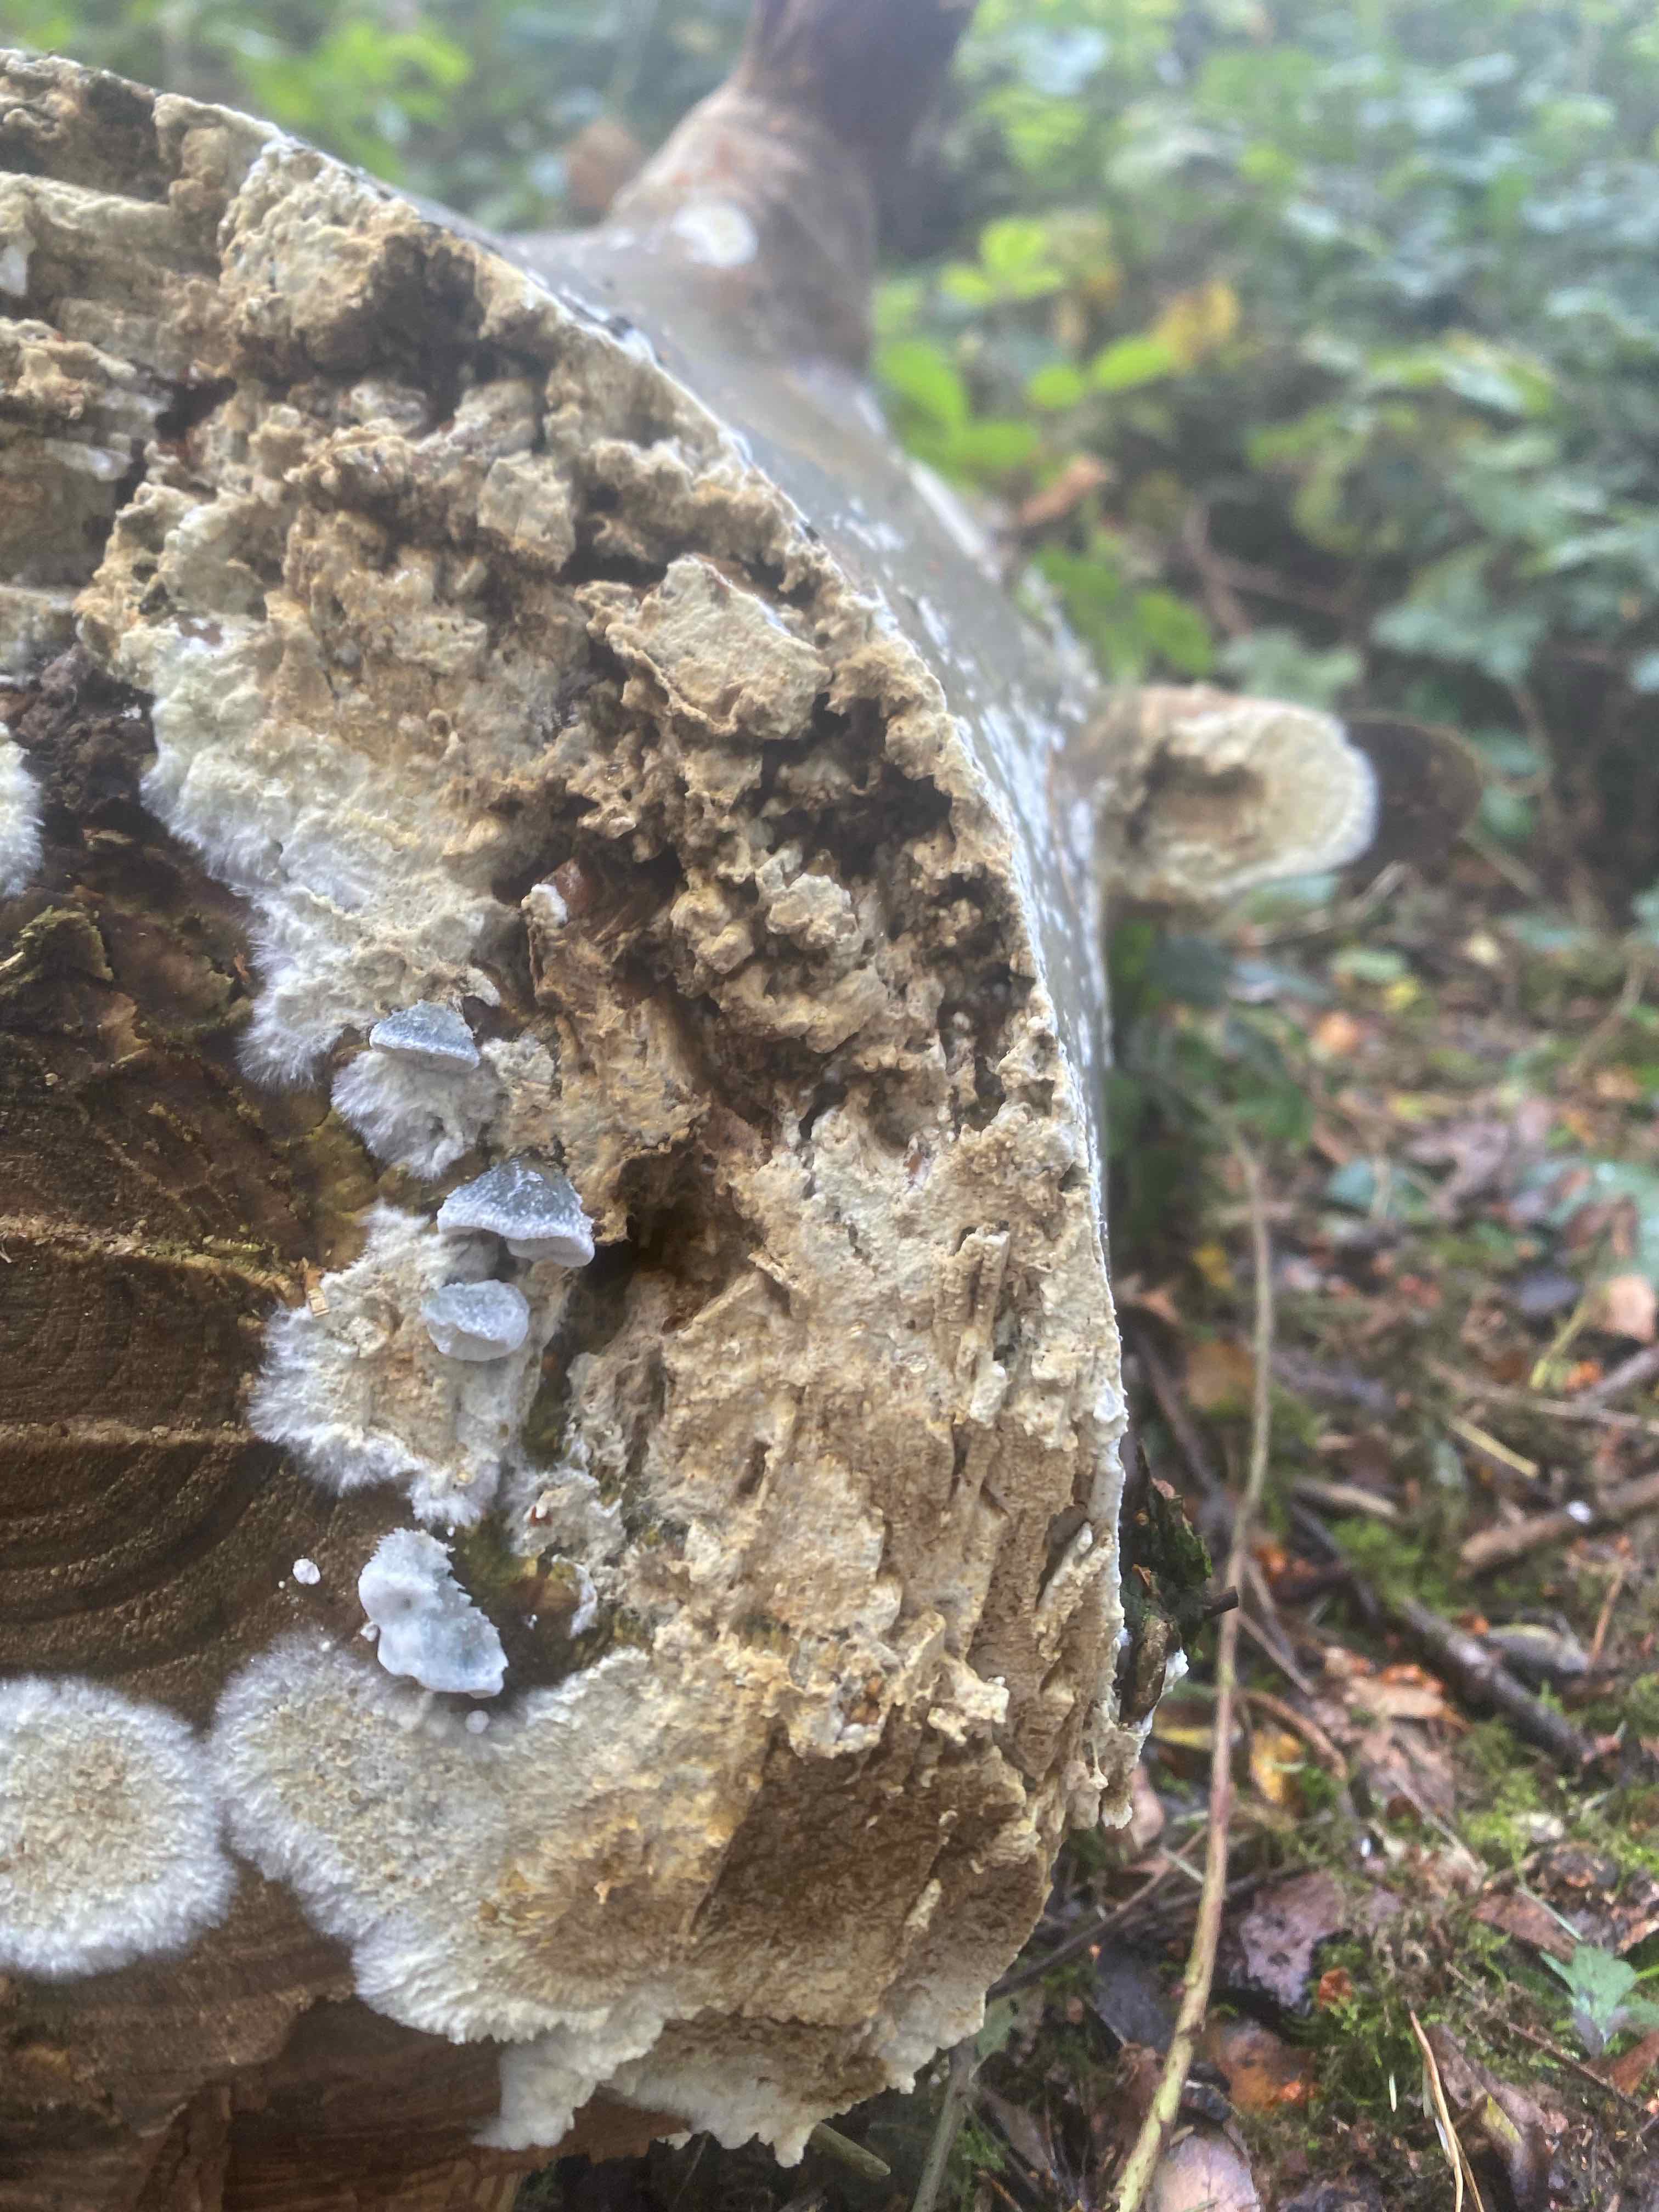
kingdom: Fungi
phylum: Basidiomycota
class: Agaricomycetes
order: Boletales
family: Coniophoraceae
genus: Coniophora
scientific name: Coniophora puteana
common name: gul tømmersvamp
